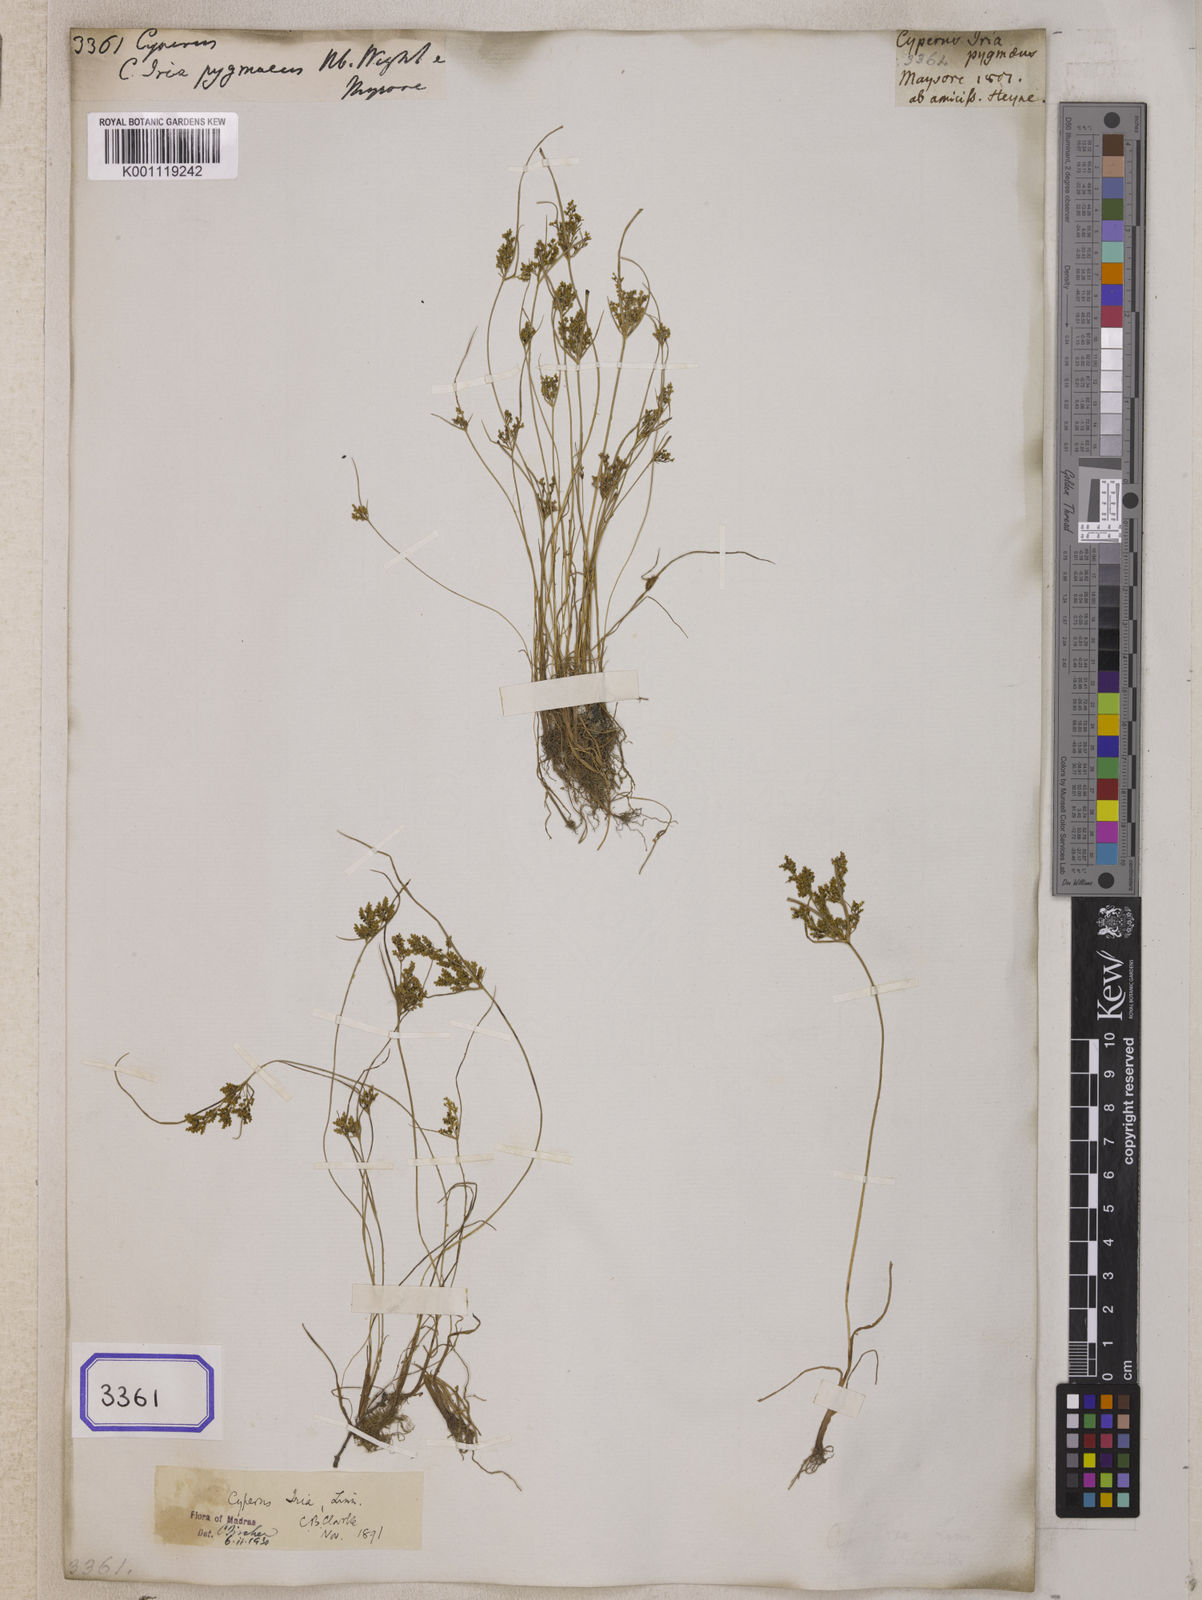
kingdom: Plantae
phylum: Tracheophyta
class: Liliopsida
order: Poales
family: Cyperaceae
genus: Cyperus
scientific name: Cyperus
